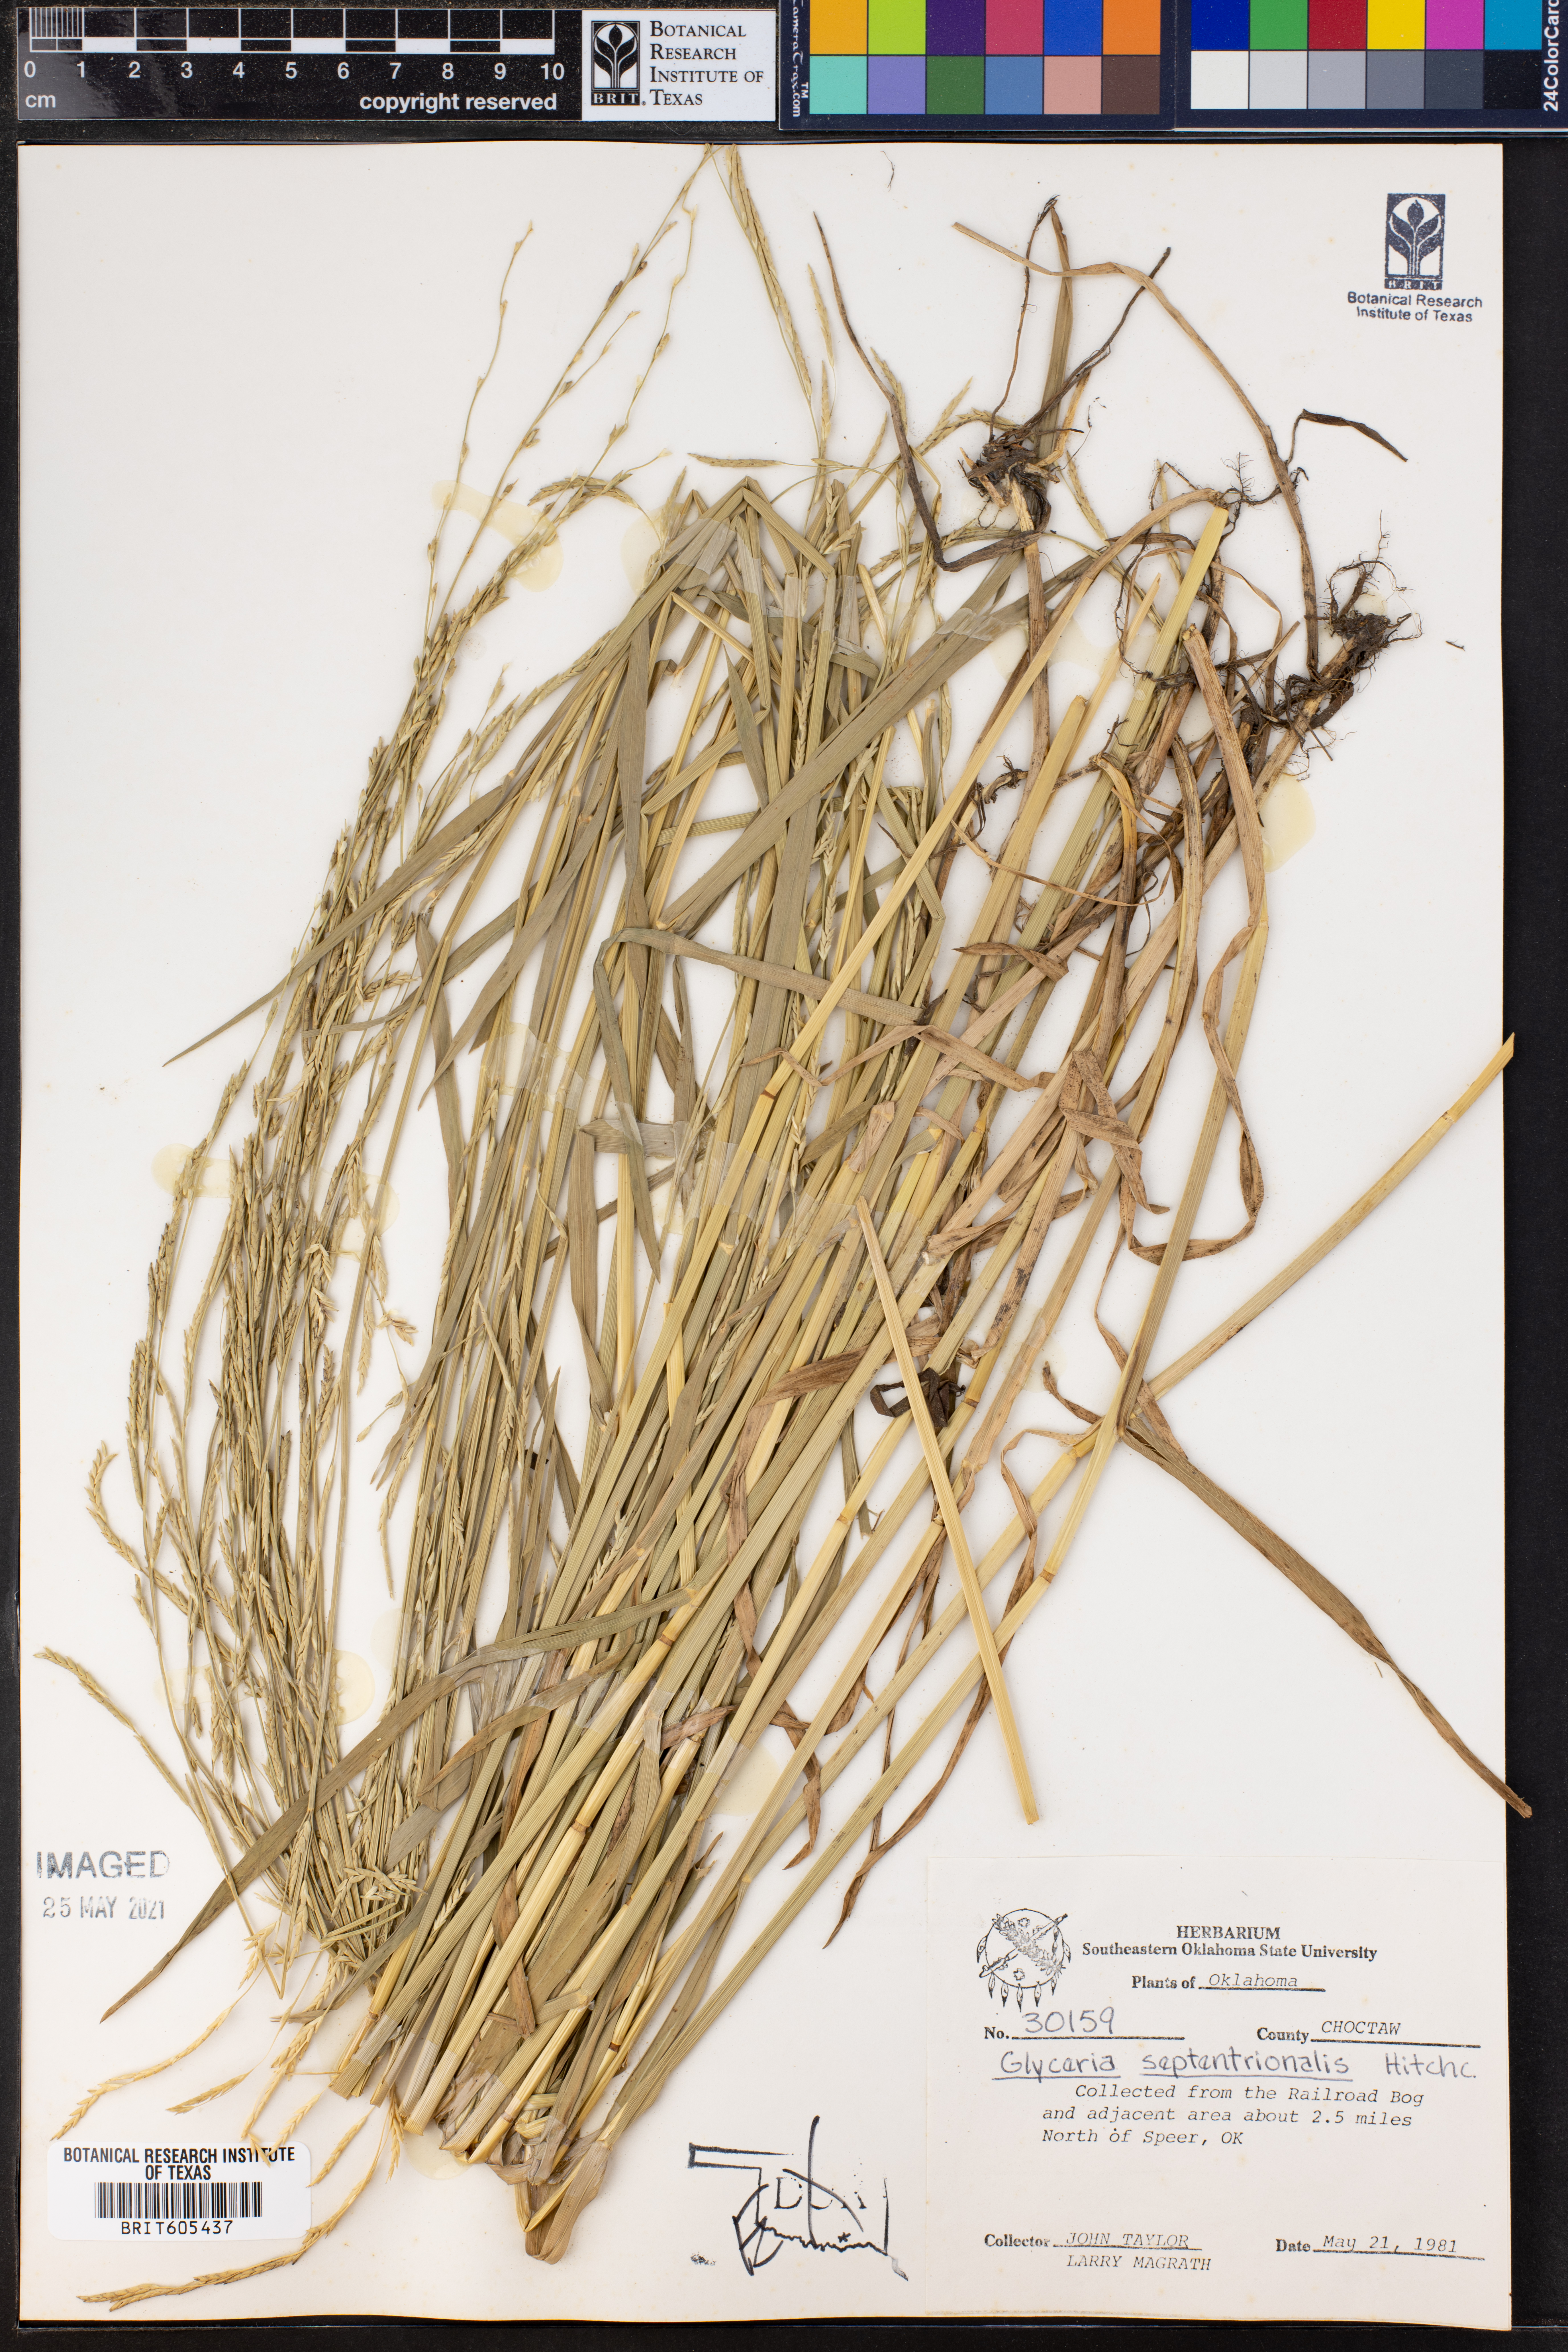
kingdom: Plantae
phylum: Tracheophyta
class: Liliopsida
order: Poales
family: Poaceae
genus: Glyceria
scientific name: Glyceria septentrionalis
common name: Eastern mannagrass
